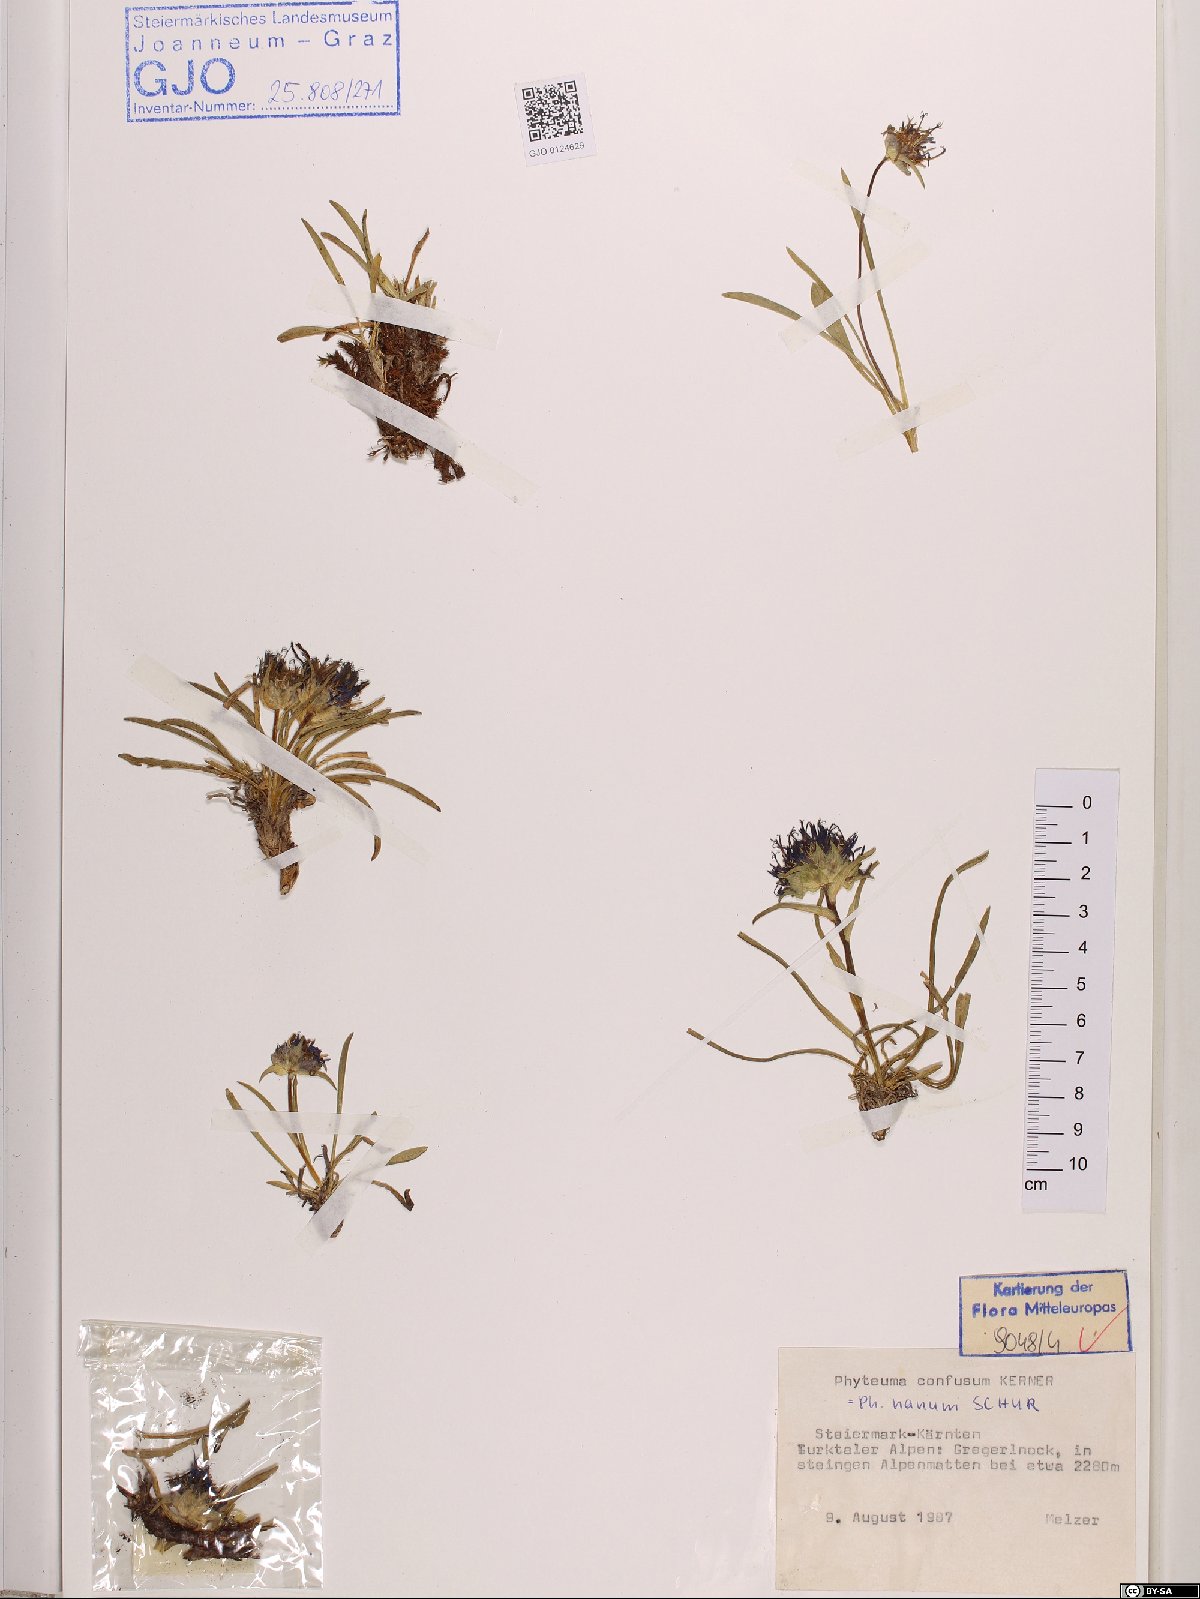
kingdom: Plantae
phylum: Tracheophyta
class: Magnoliopsida
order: Asterales
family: Campanulaceae
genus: Phyteuma
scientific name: Phyteuma confusum
